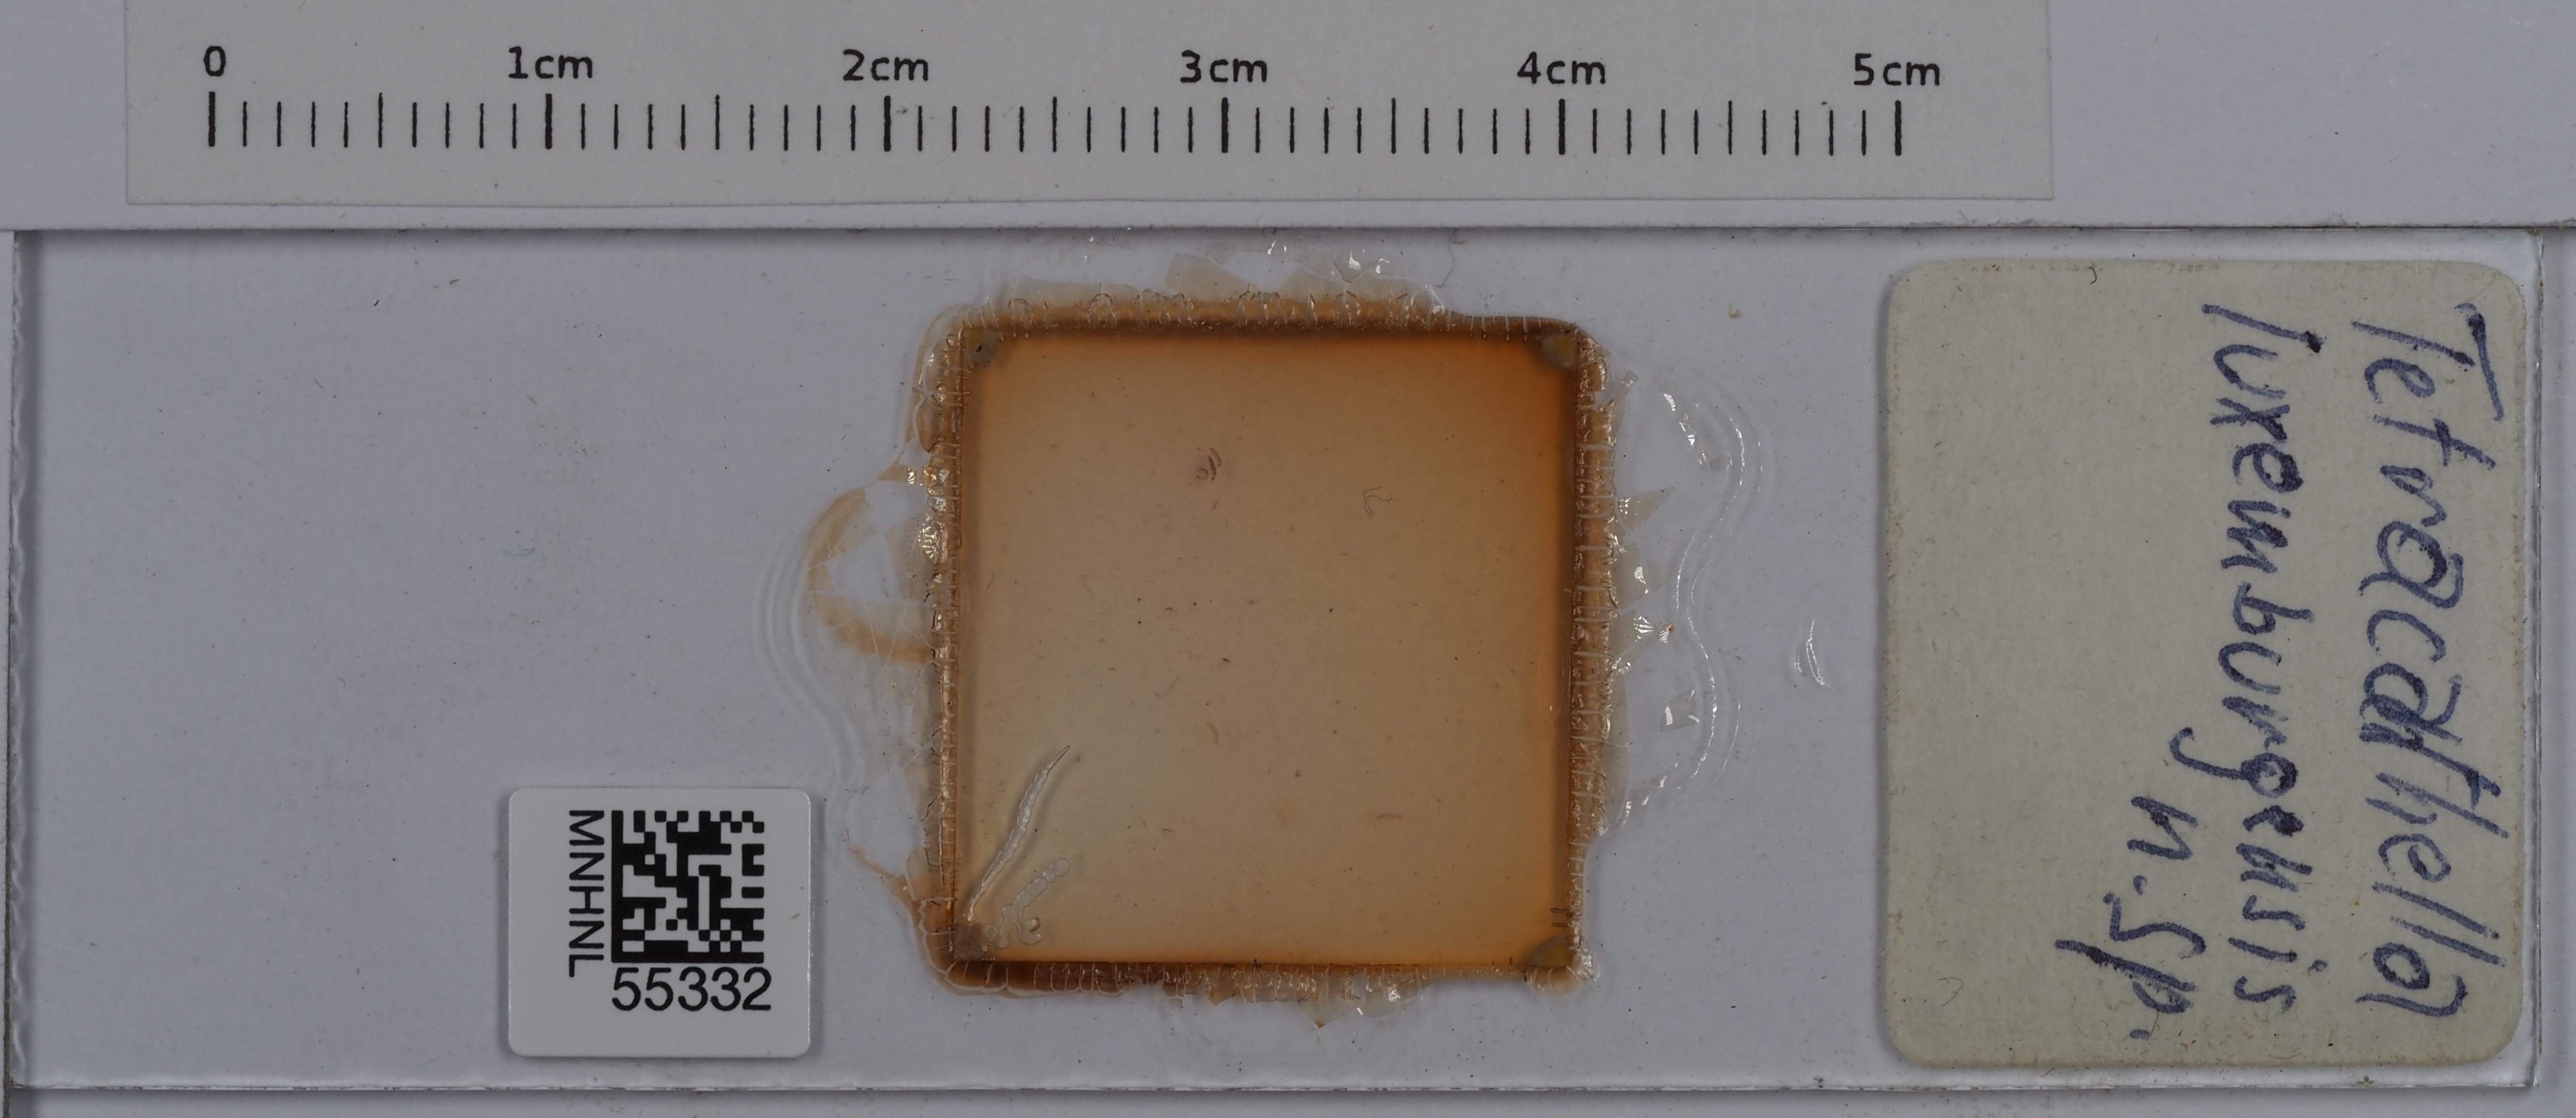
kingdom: Animalia
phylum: Arthropoda
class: Collembola
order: Entomobryomorpha
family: Isotomidae
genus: Tetracanthella
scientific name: Tetracanthella luxemburgensis
